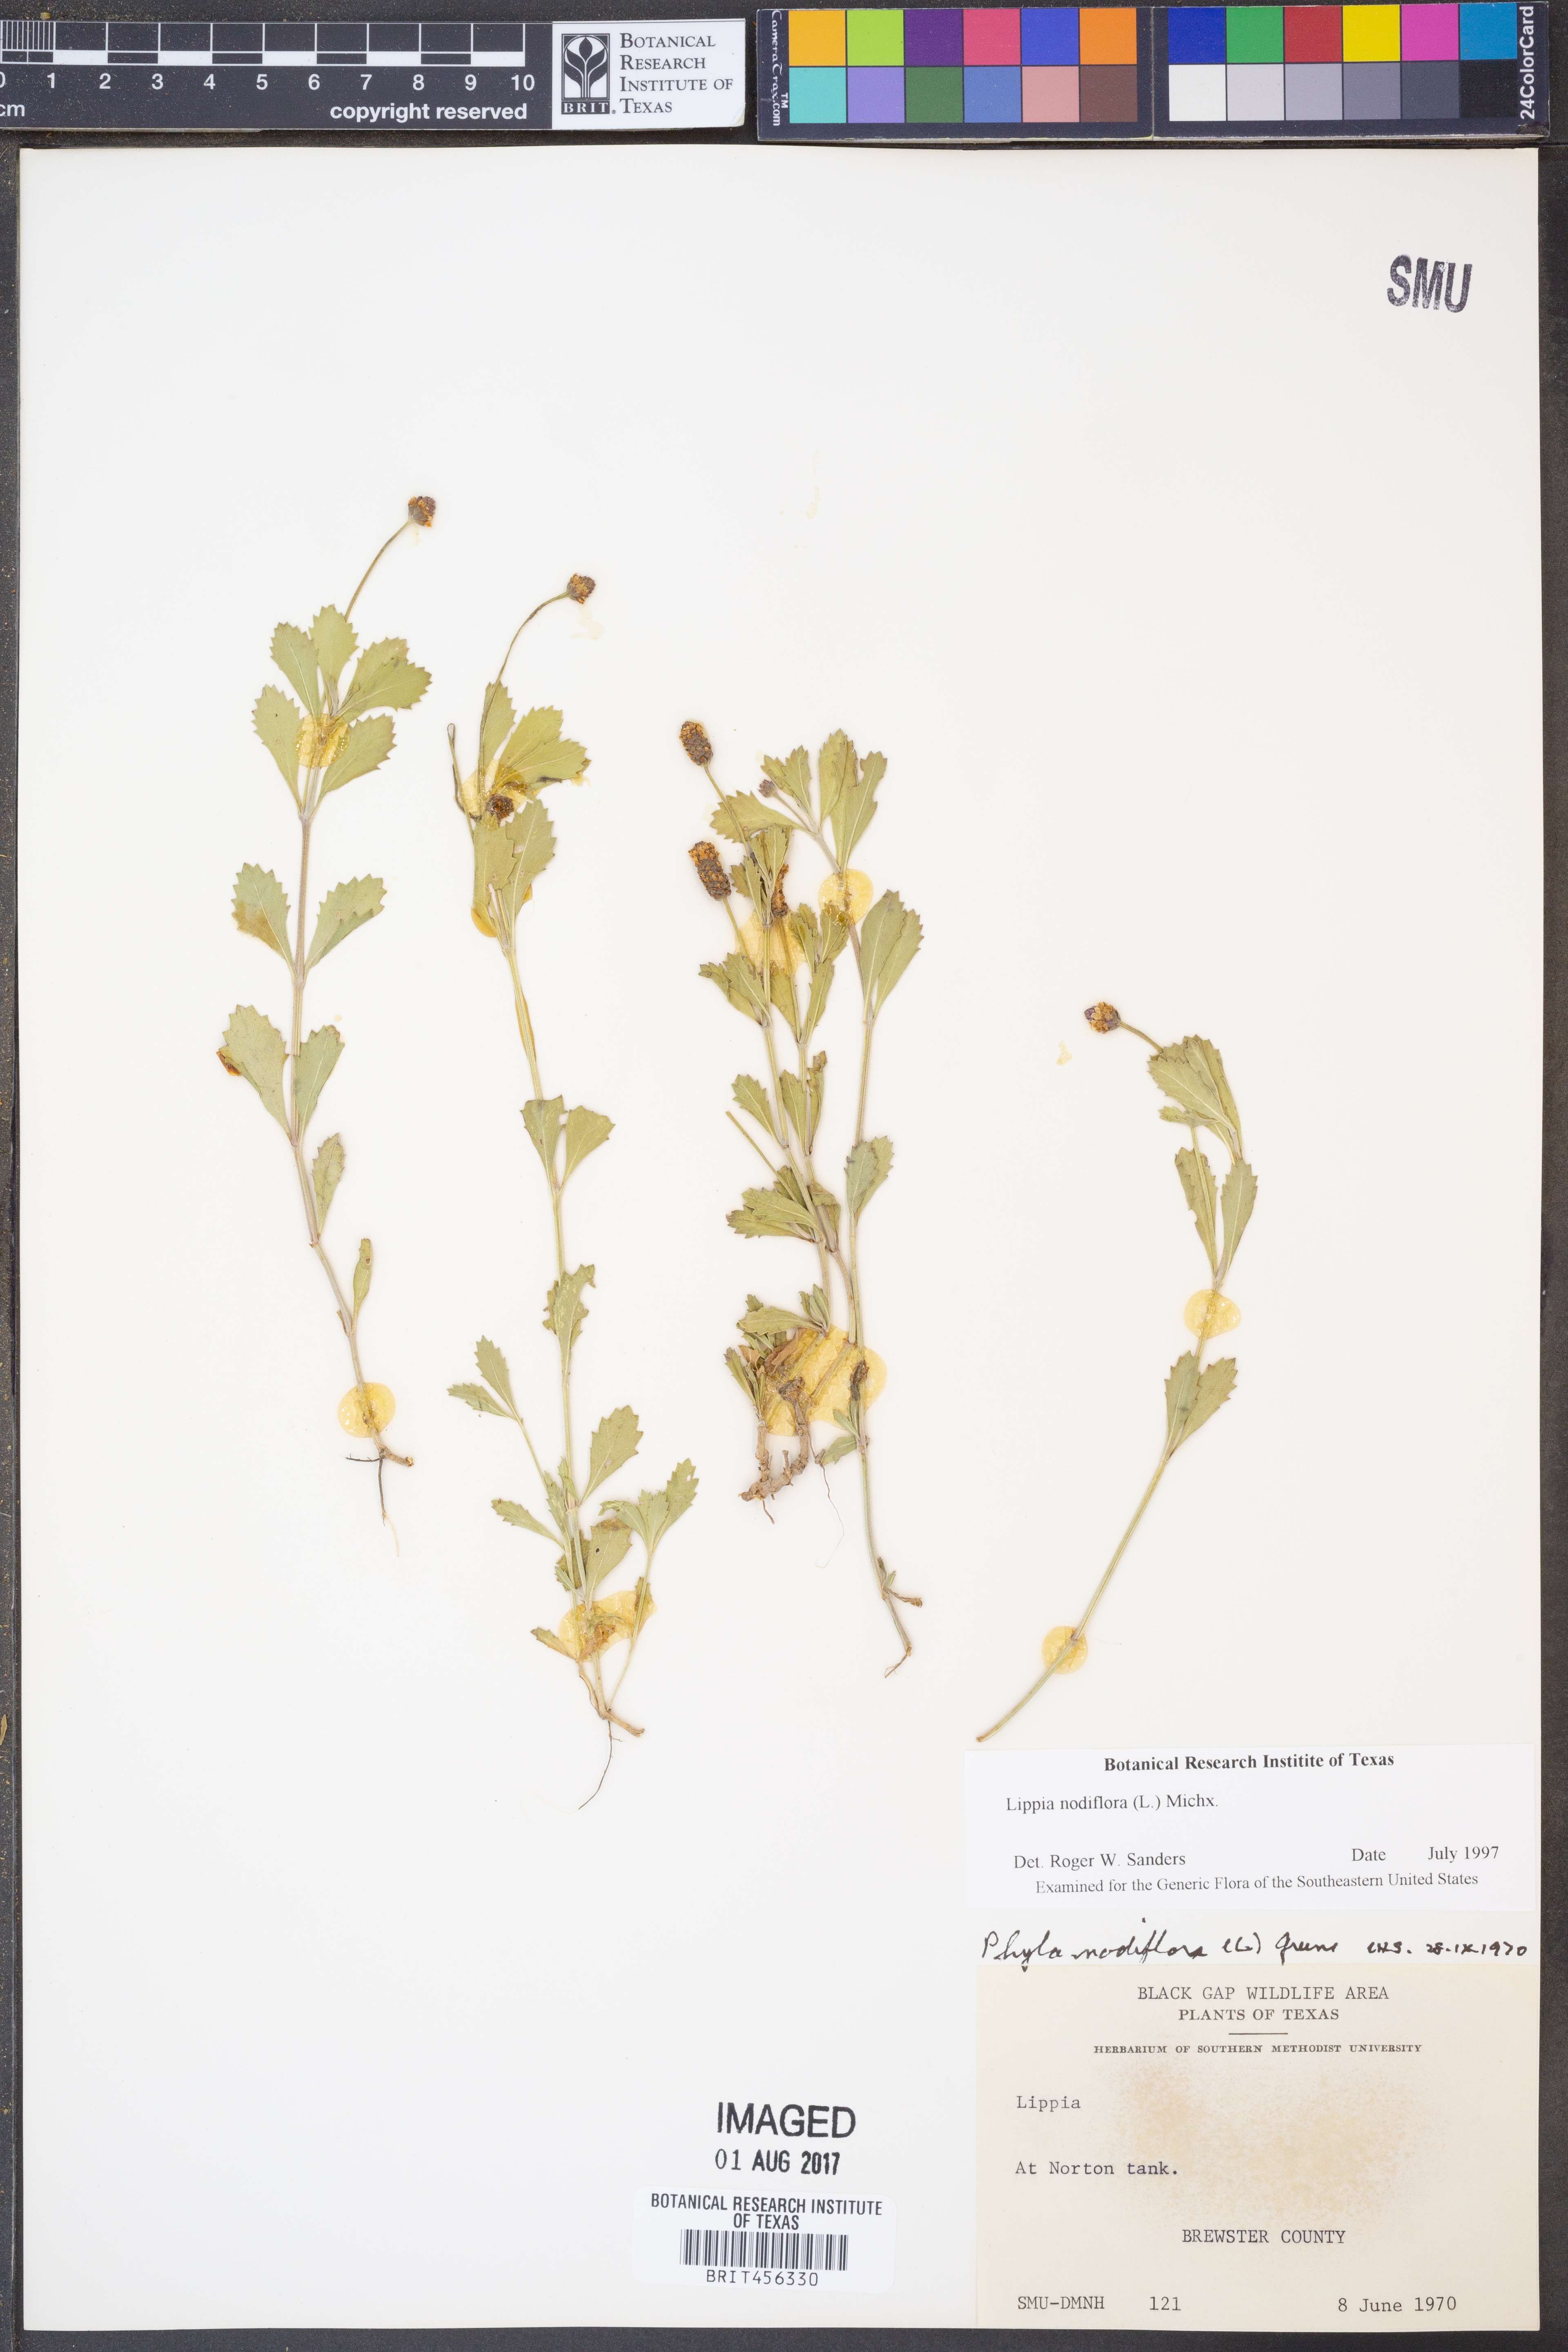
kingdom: Plantae
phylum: Tracheophyta
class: Magnoliopsida
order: Lamiales
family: Verbenaceae
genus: Phyla
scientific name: Phyla nodiflora
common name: Frogfruit
